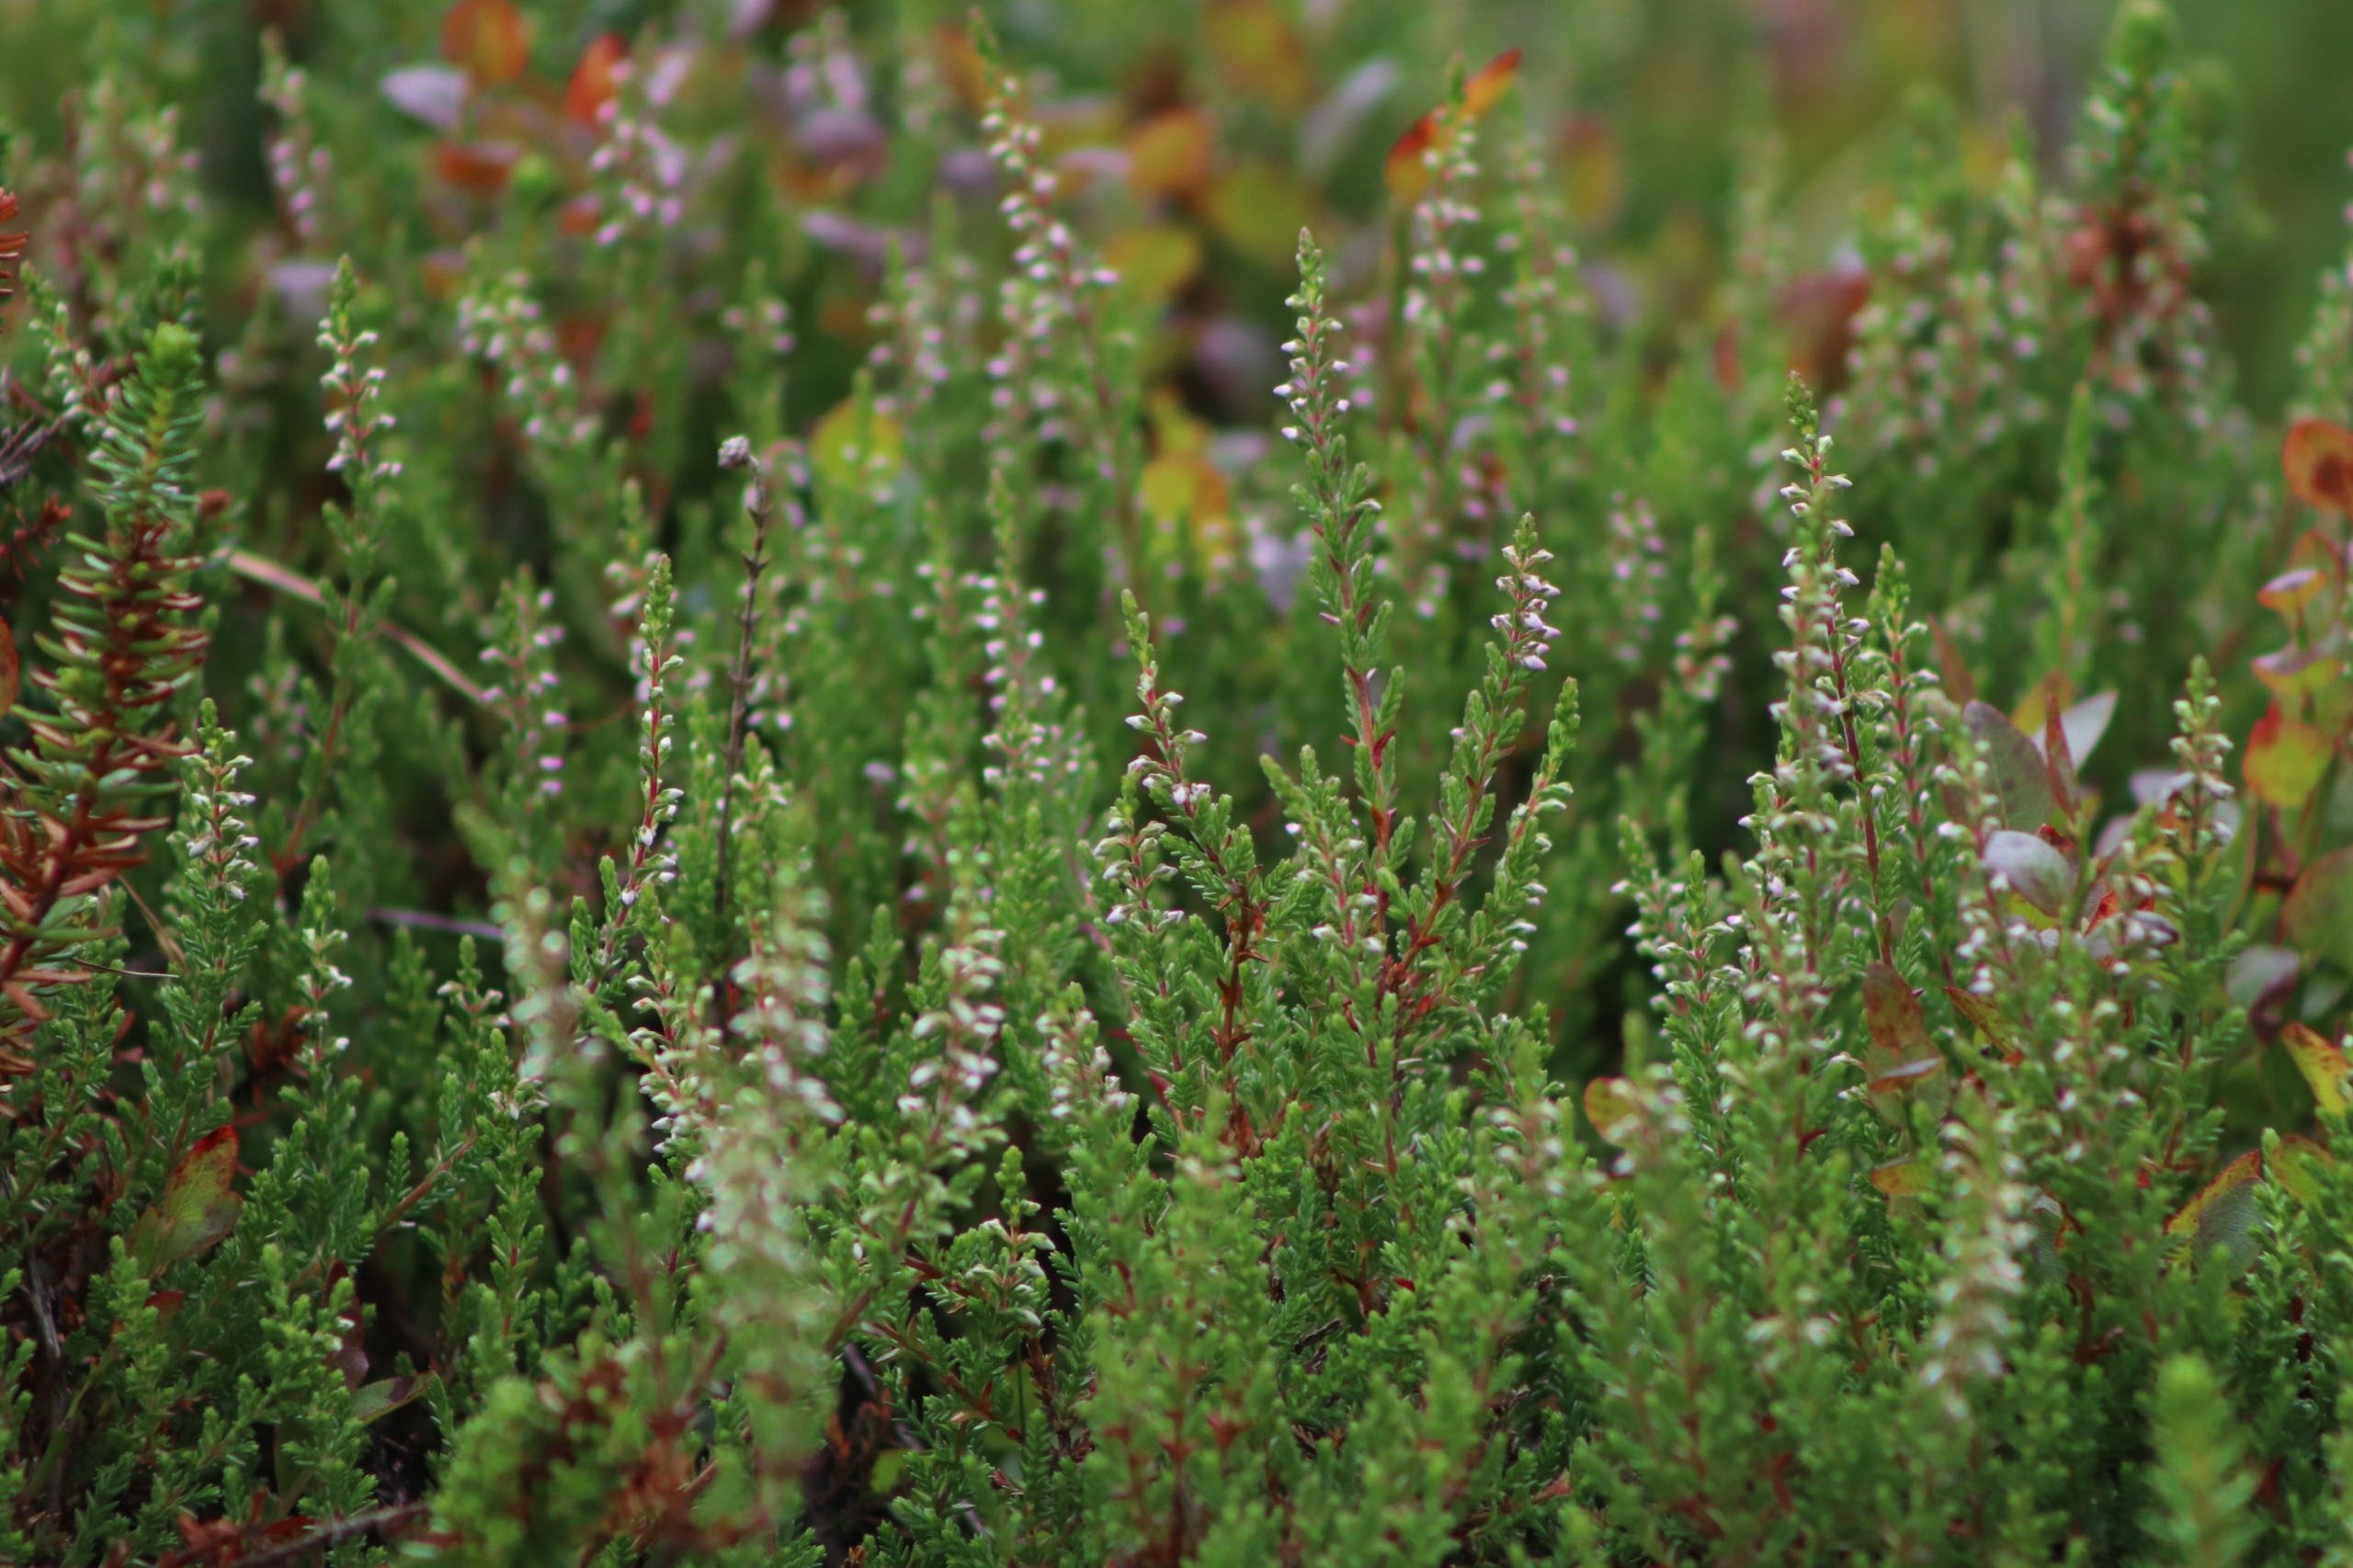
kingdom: Plantae
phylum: Tracheophyta
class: Magnoliopsida
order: Ericales
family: Ericaceae
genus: Calluna
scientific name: Calluna vulgaris
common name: Hedelyng
